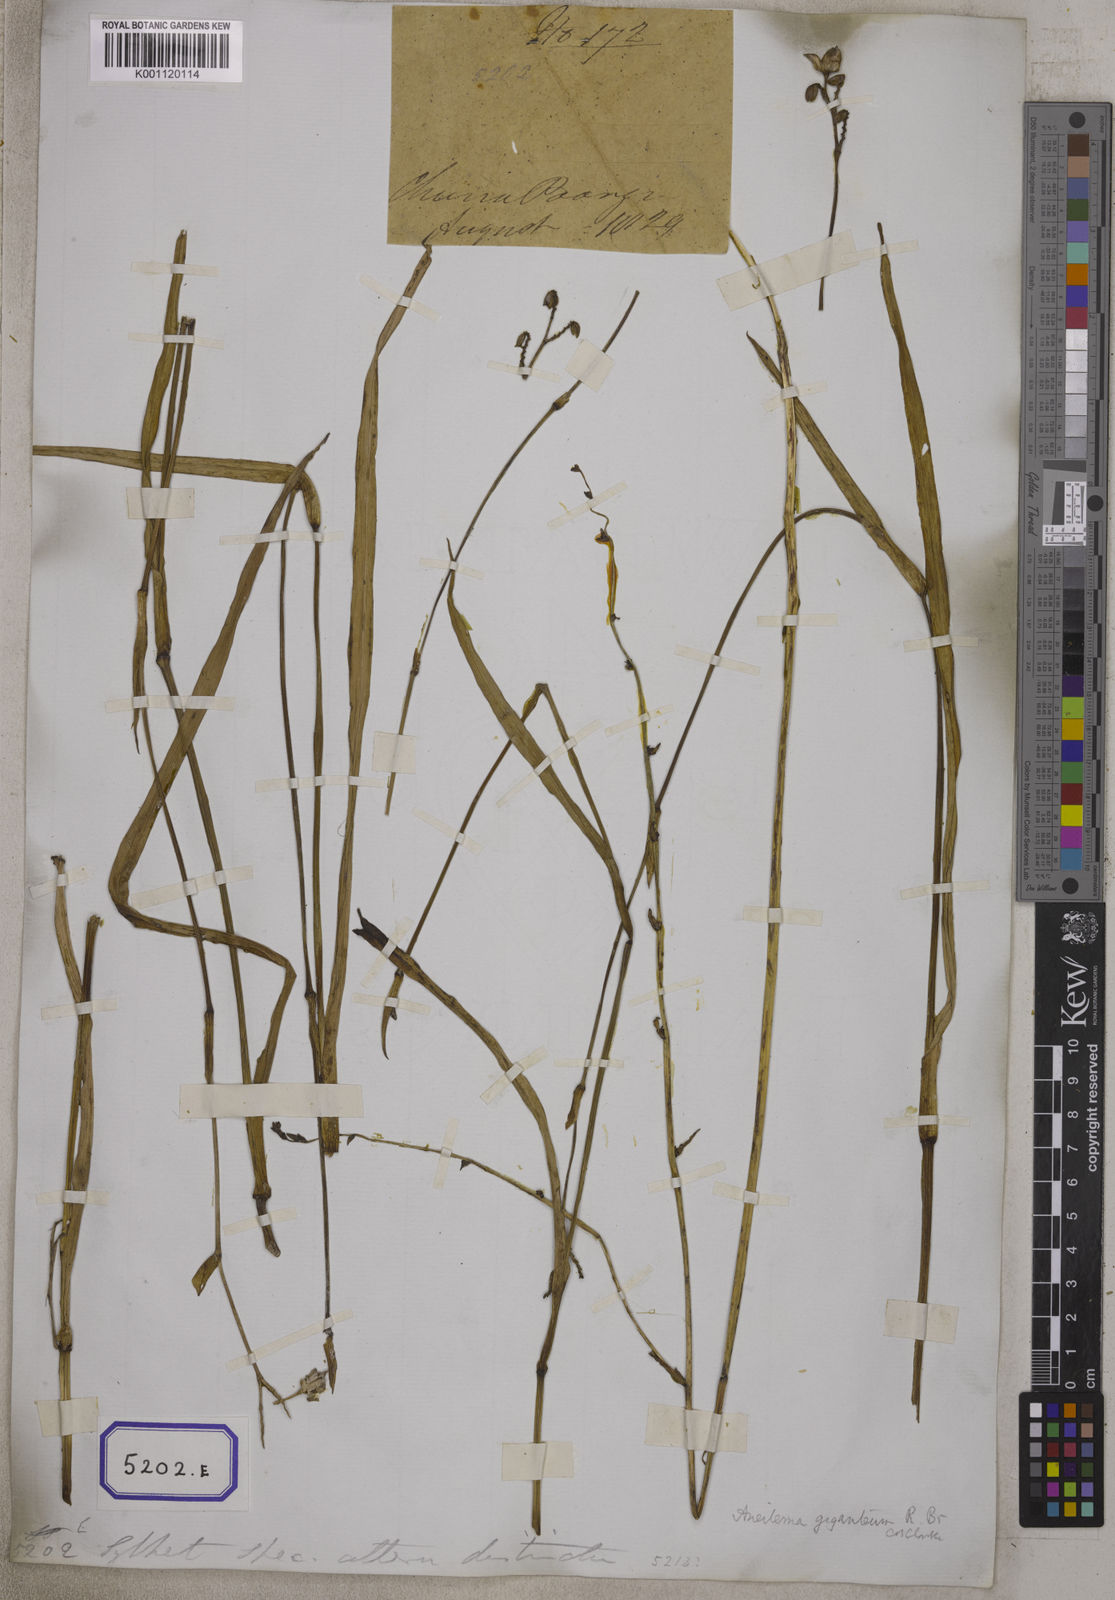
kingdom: Plantae
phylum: Tracheophyta
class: Liliopsida
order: Commelinales
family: Commelinaceae
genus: Aneilema
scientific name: Aneilema
